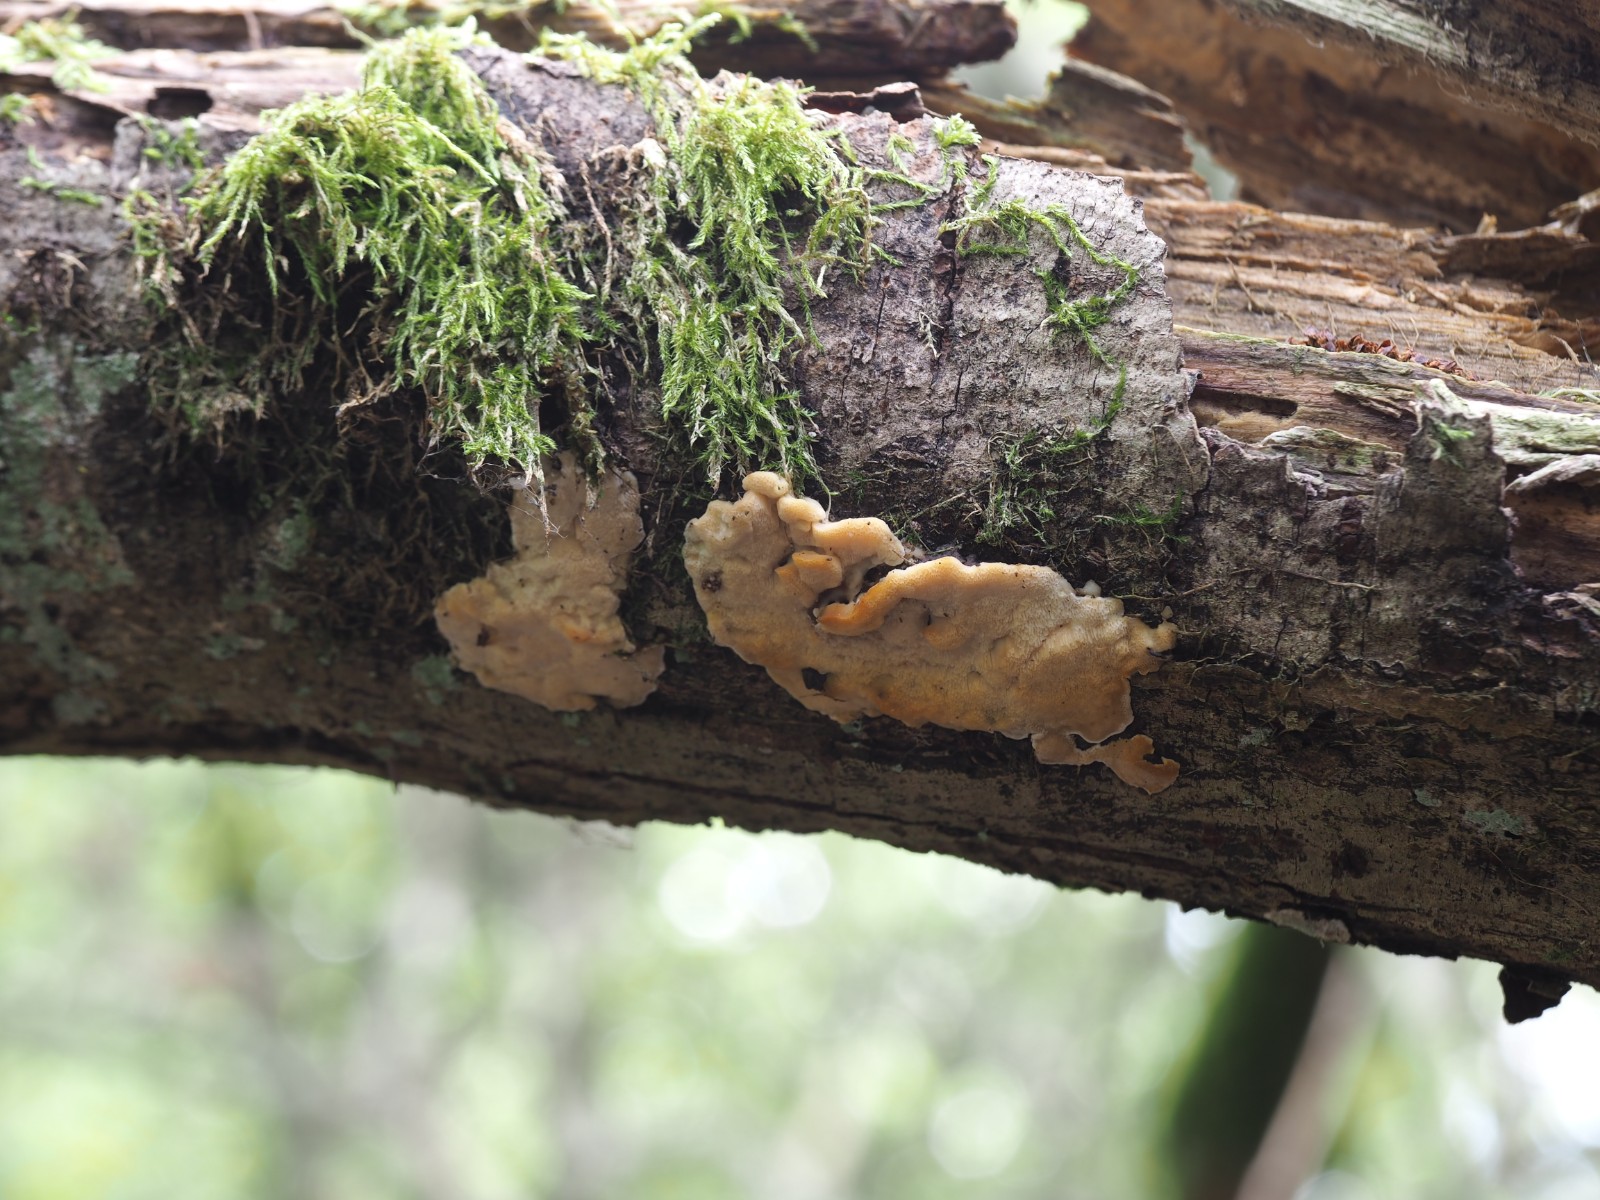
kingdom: Fungi
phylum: Basidiomycota
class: Agaricomycetes
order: Polyporales
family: Steccherinaceae
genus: Antrodiella
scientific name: Antrodiella
